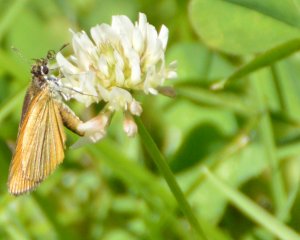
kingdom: Animalia
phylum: Arthropoda
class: Insecta
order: Lepidoptera
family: Hesperiidae
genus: Ancyloxypha
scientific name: Ancyloxypha numitor
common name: Least Skipper
